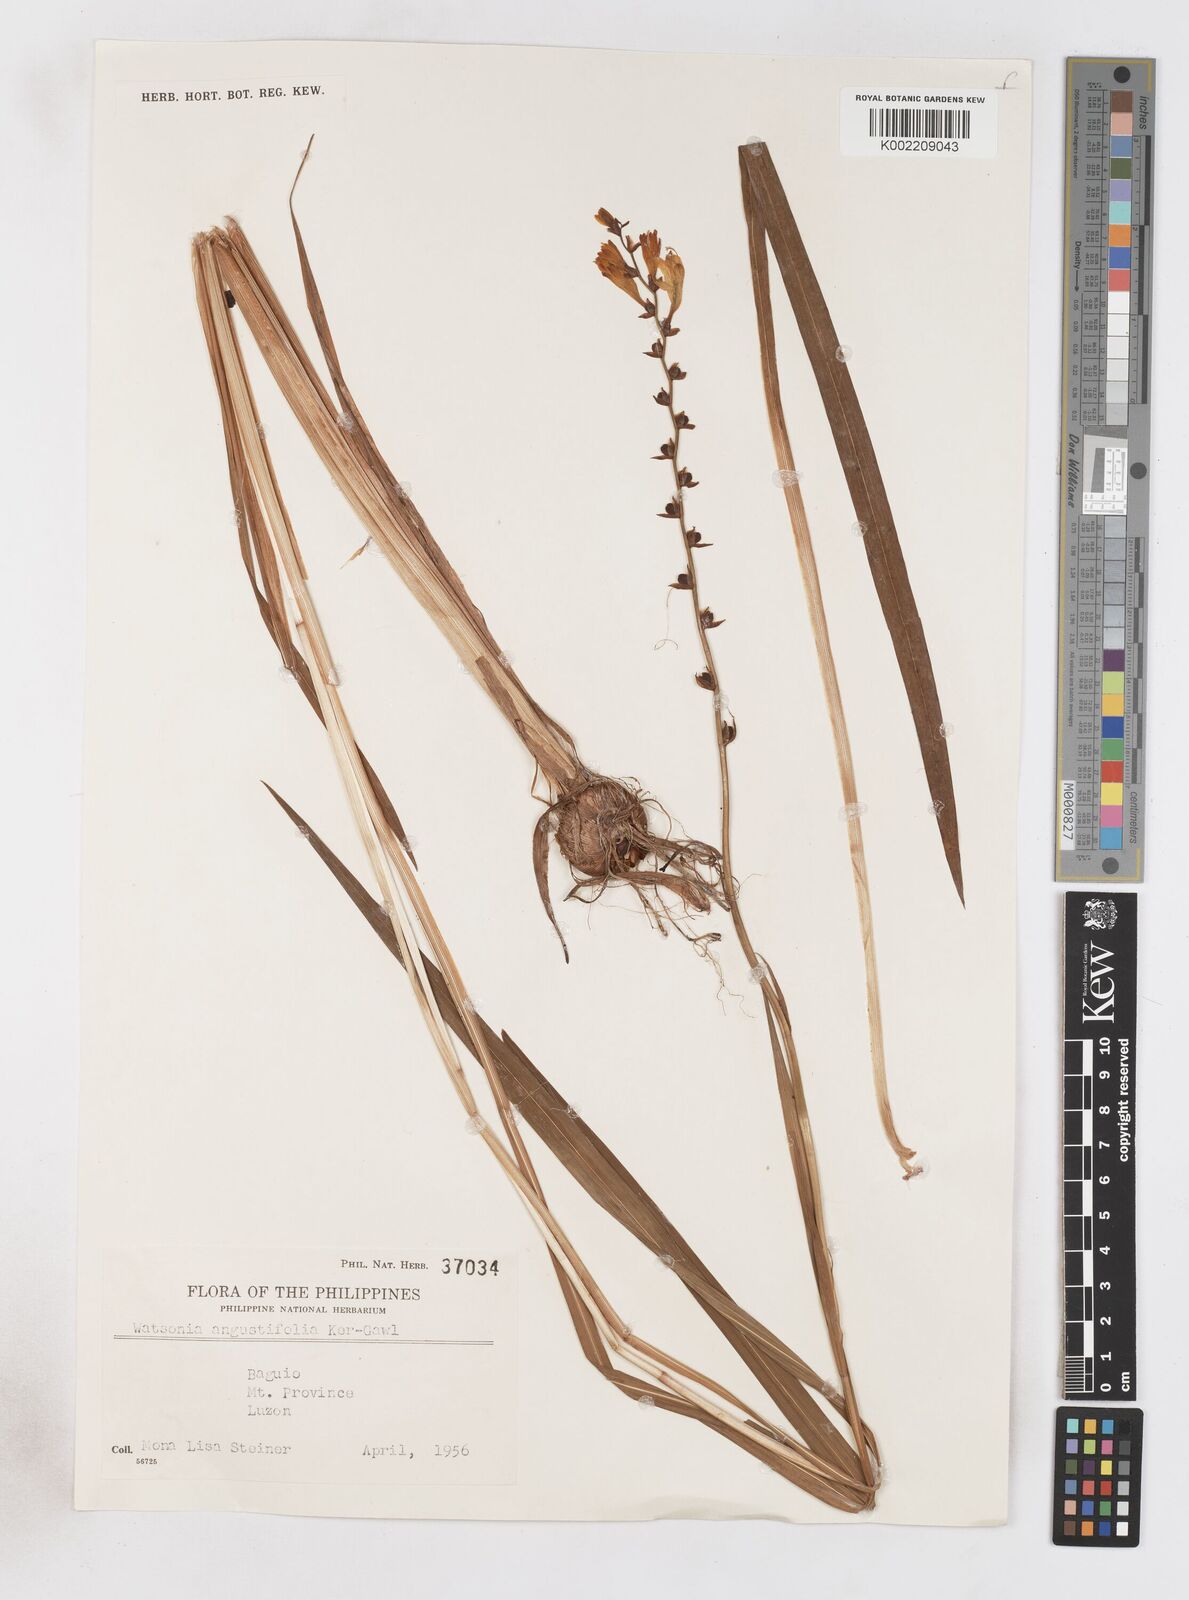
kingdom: Plantae
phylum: Tracheophyta
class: Liliopsida
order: Asparagales
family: Iridaceae
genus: Crocosmia
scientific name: Crocosmia crocosmiiflora
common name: Montbretia
